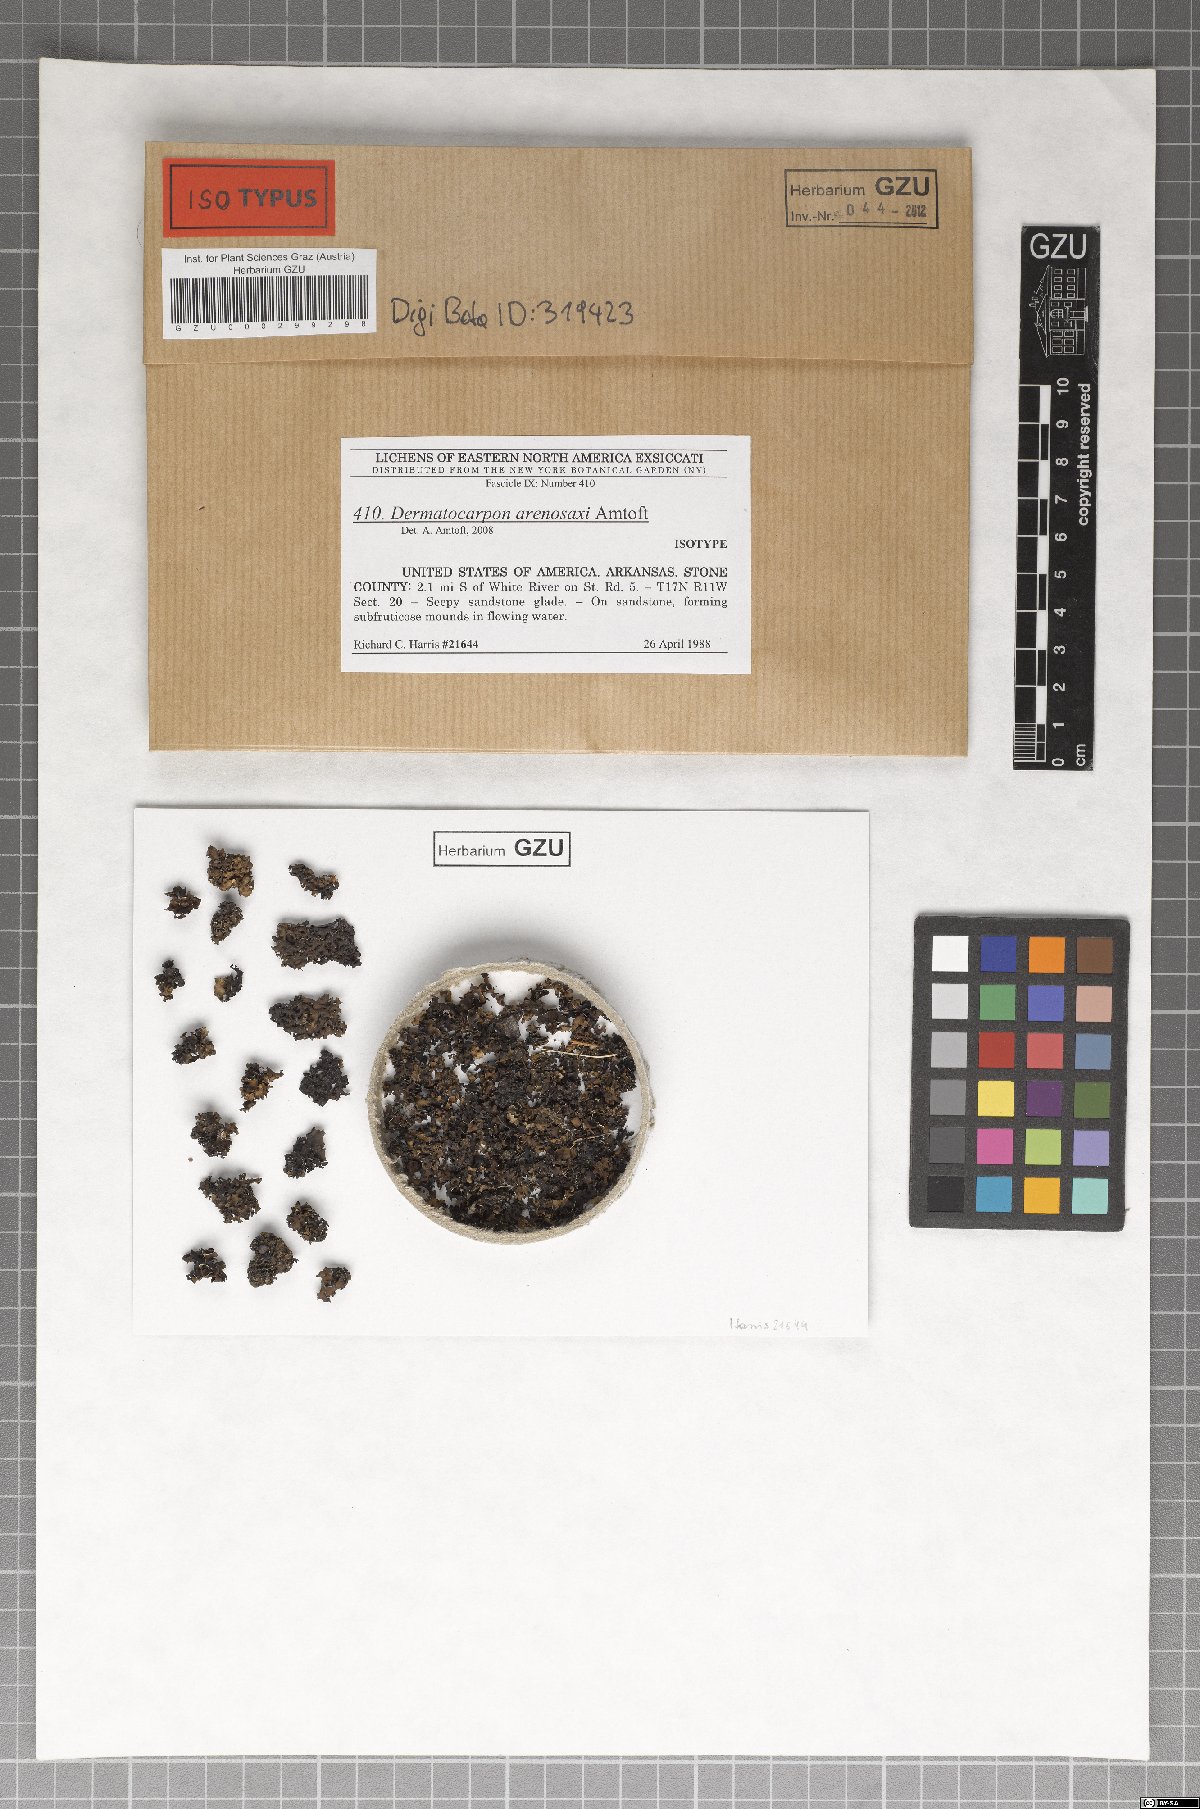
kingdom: Fungi
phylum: Ascomycota
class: Eurotiomycetes
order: Verrucariales
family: Verrucariaceae
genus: Dermatocarpon
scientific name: Dermatocarpon arenosaxi
